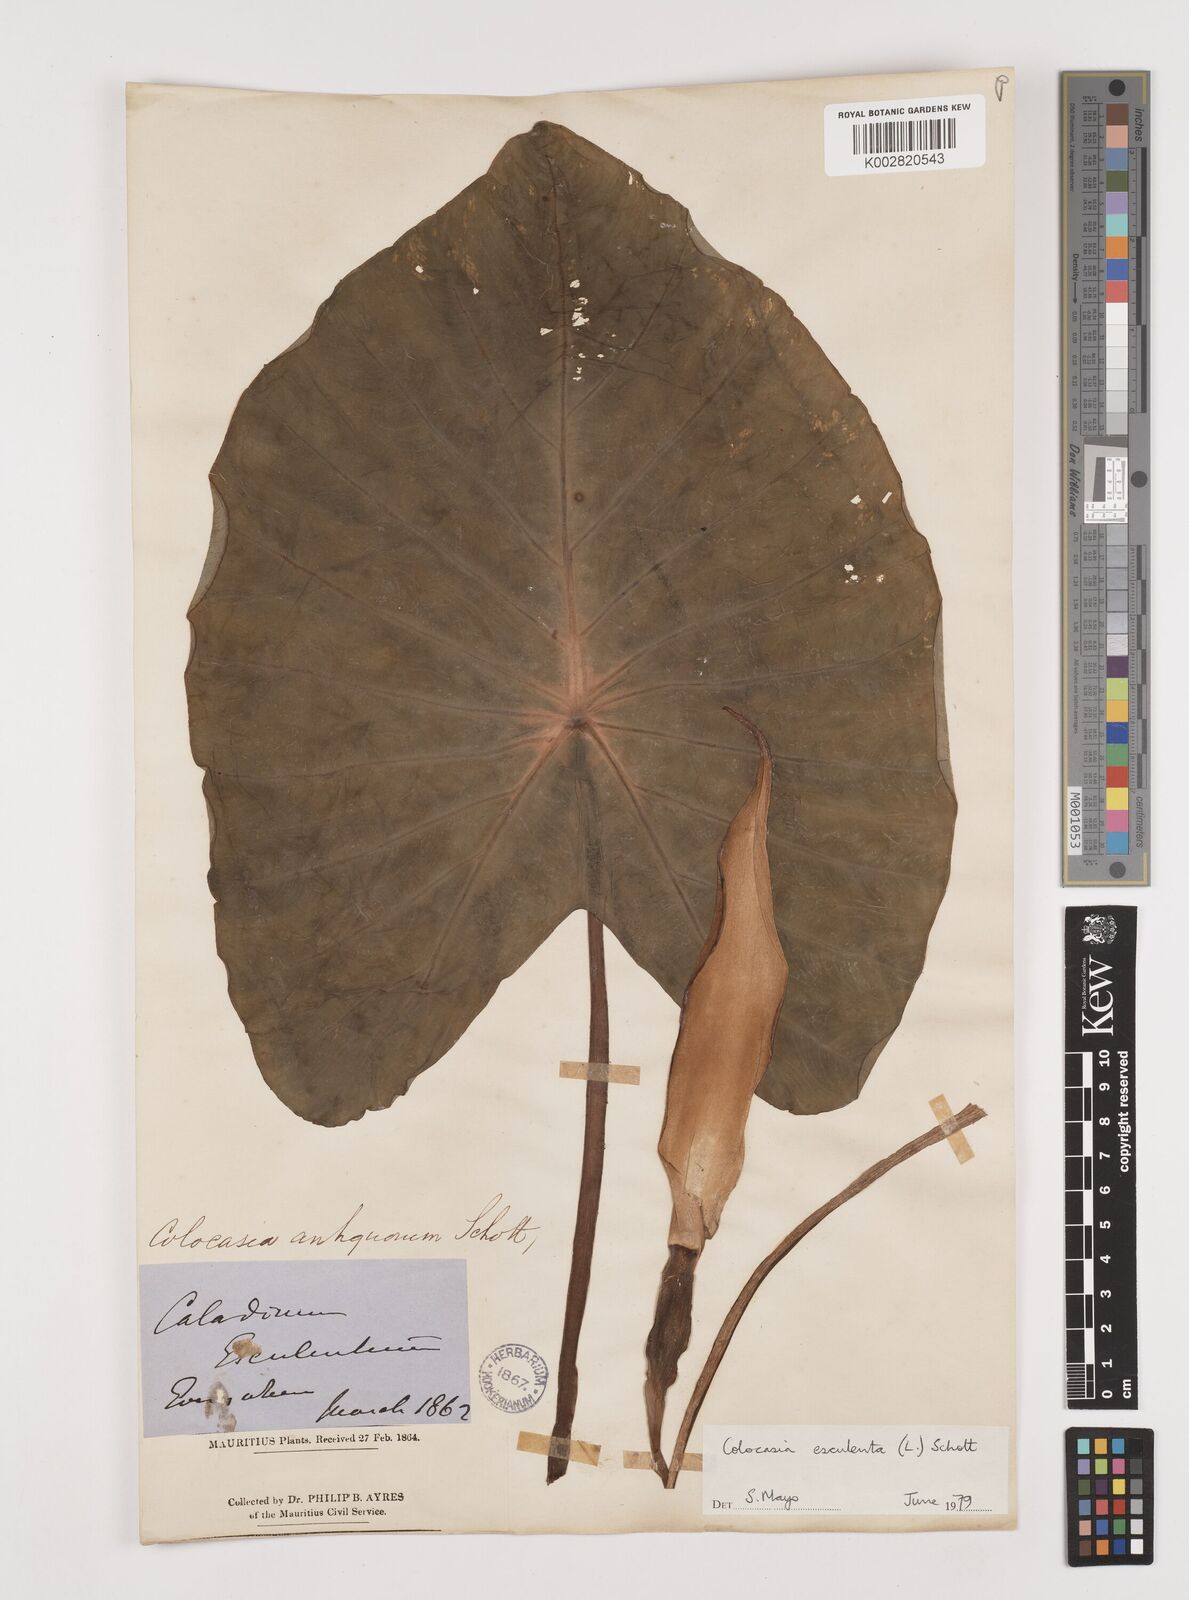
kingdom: Plantae
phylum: Tracheophyta
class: Liliopsida
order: Alismatales
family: Araceae
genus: Colocasia
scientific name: Colocasia esculenta
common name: Taro
